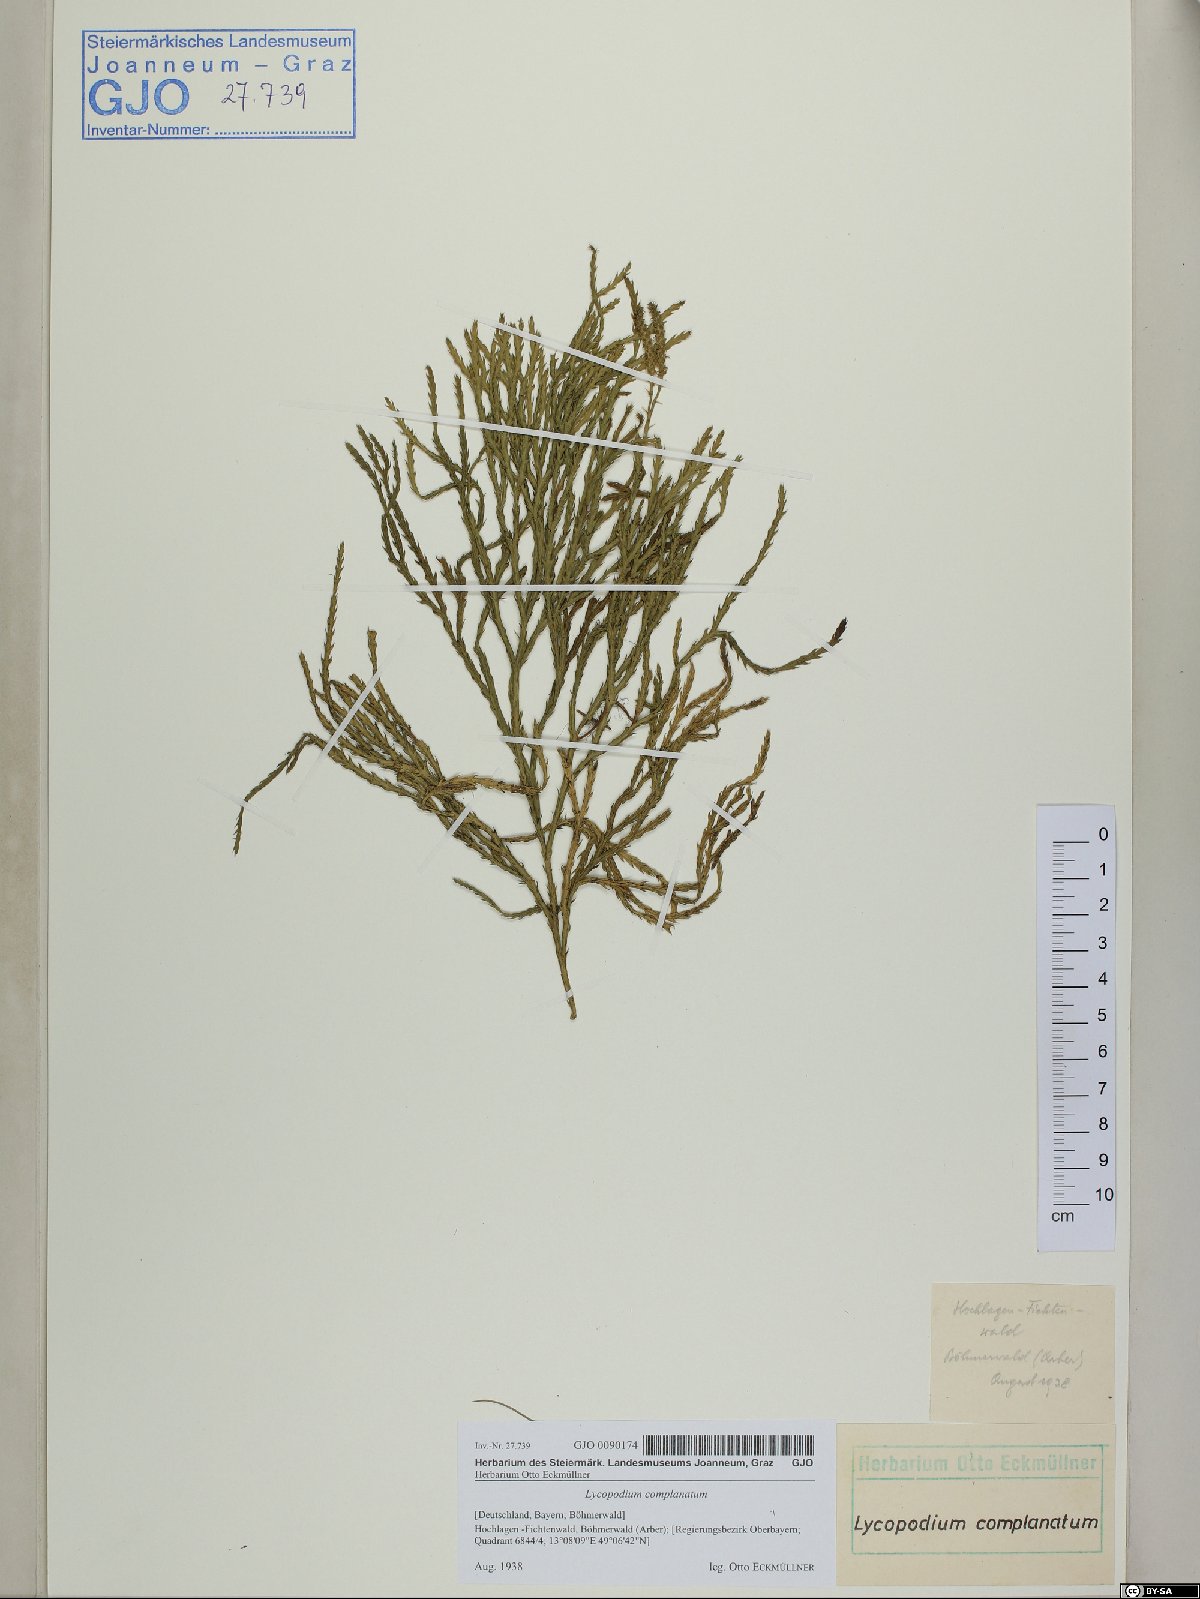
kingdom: Plantae
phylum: Tracheophyta
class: Lycopodiopsida
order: Lycopodiales
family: Lycopodiaceae
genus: Diphasiastrum
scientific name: Diphasiastrum complanatum
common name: Northern running-pine
